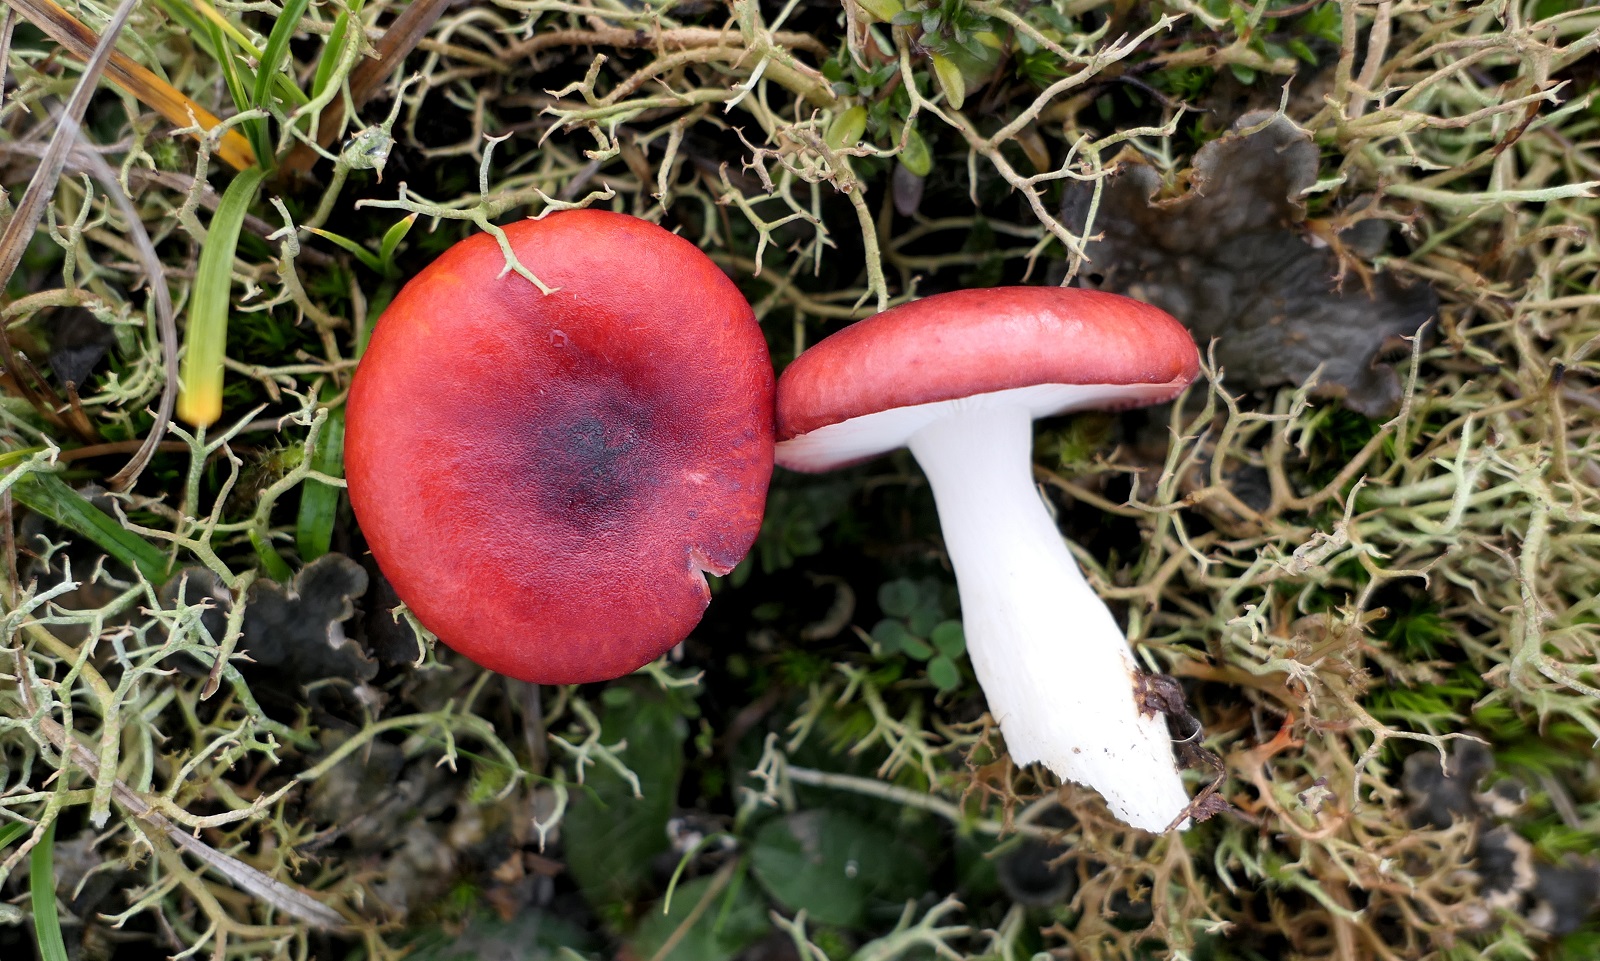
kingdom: Fungi
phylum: Basidiomycota
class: Agaricomycetes
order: Russulales
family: Russulaceae
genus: Russula
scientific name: Russula laccata
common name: klit-skørhat
